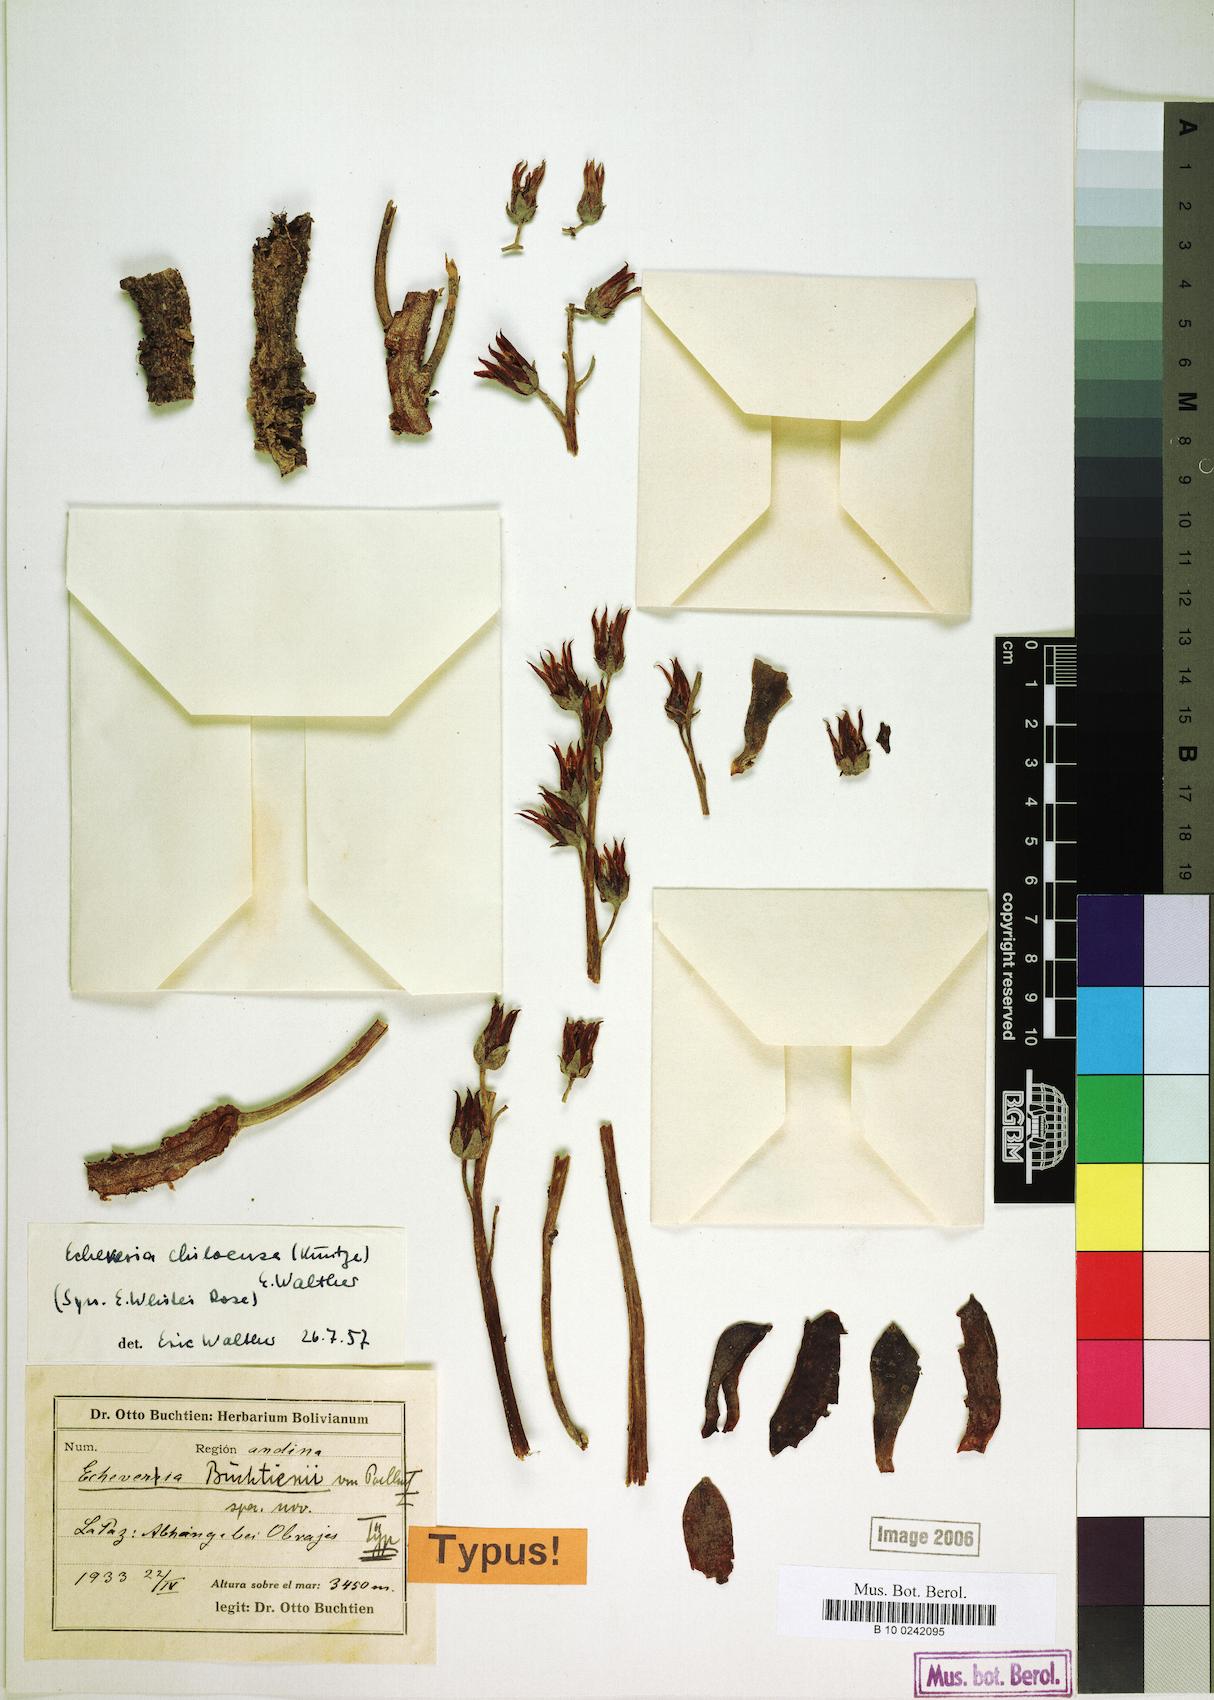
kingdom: Plantae
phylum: Tracheophyta
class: Magnoliopsida
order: Saxifragales
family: Crassulaceae
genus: Echeveria
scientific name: Echeveria
